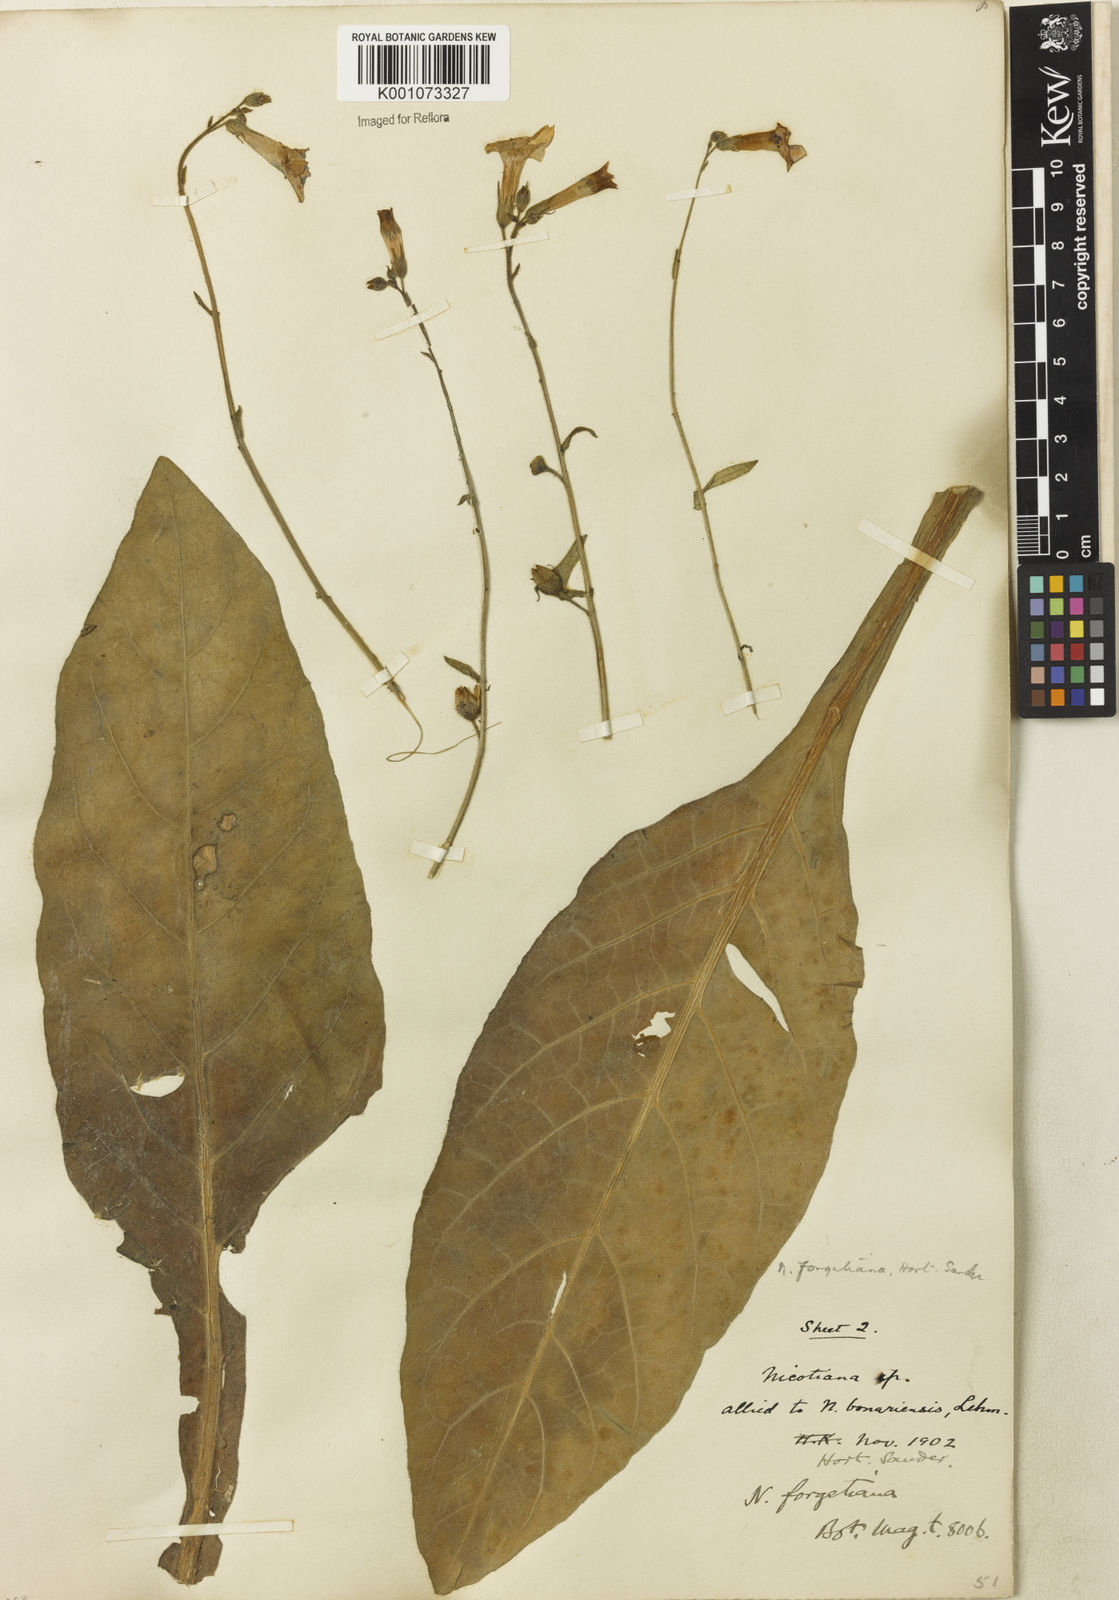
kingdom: Plantae
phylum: Tracheophyta
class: Magnoliopsida
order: Solanales
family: Solanaceae
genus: Nicotiana
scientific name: Nicotiana
